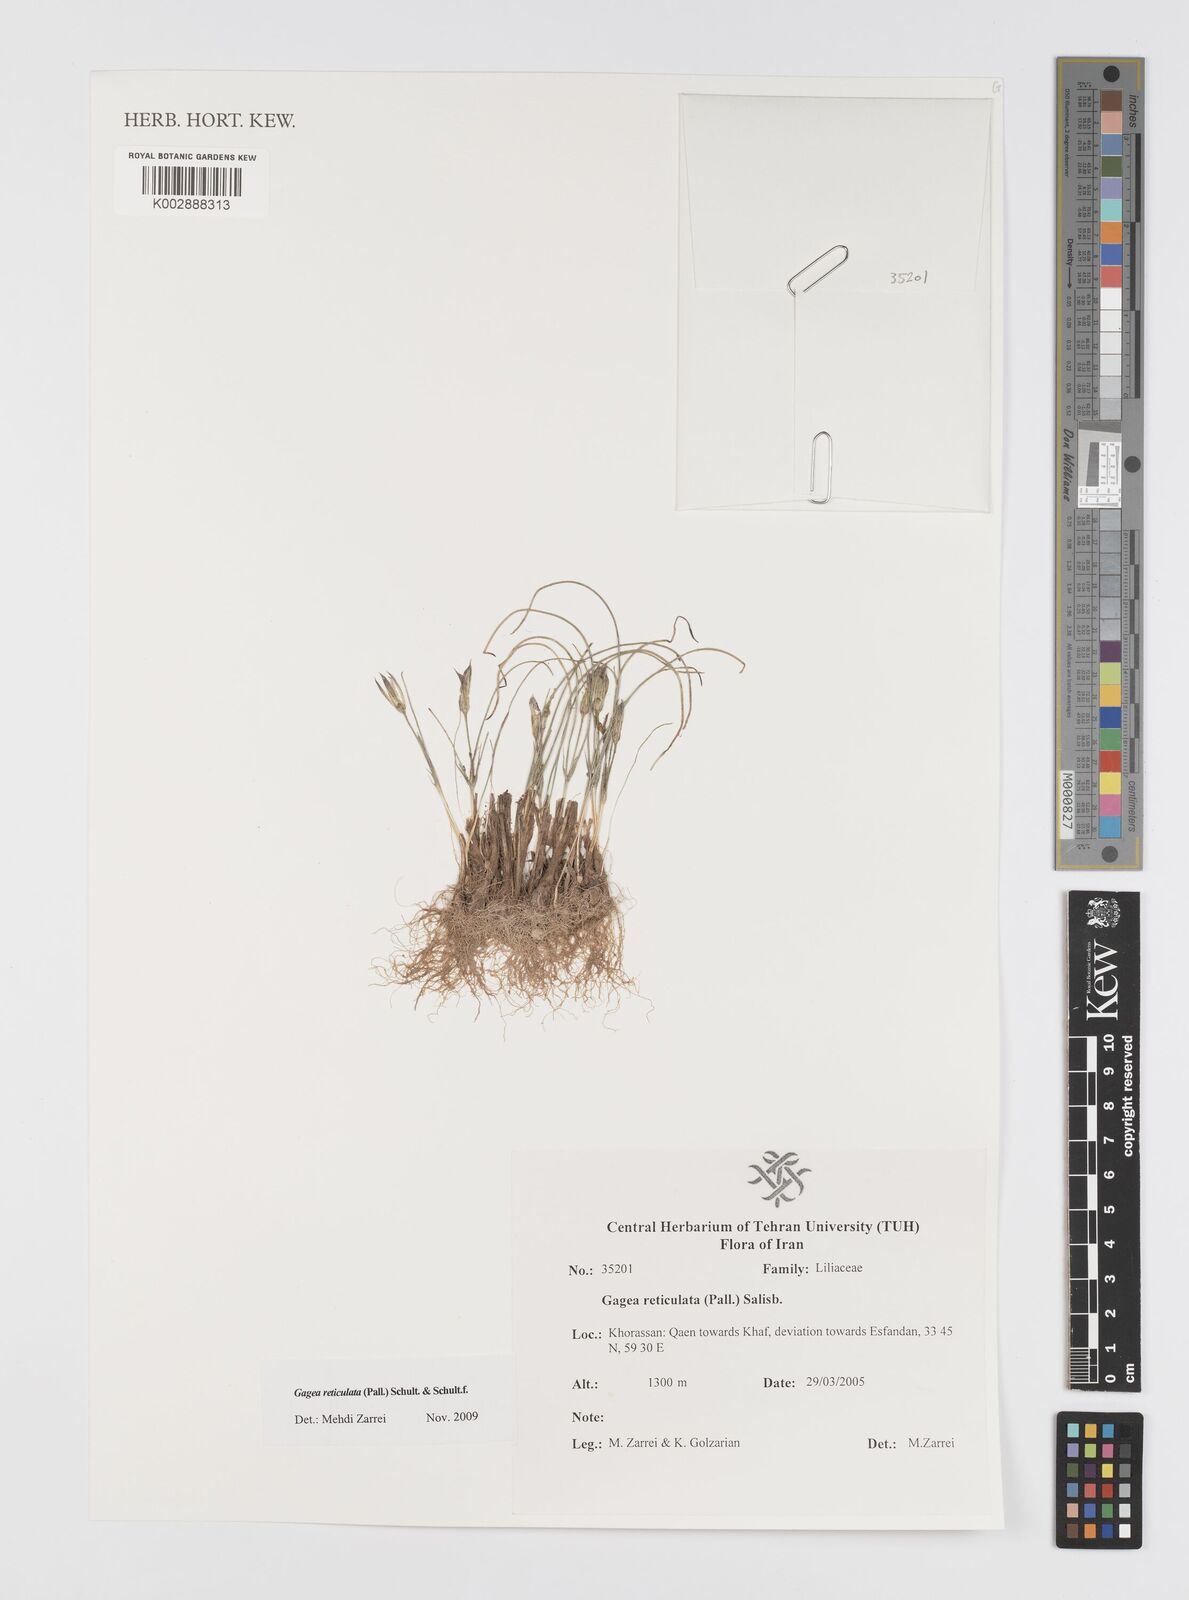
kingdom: Plantae
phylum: Tracheophyta
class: Liliopsida
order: Liliales
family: Liliaceae
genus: Gagea
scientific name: Gagea reticulata
